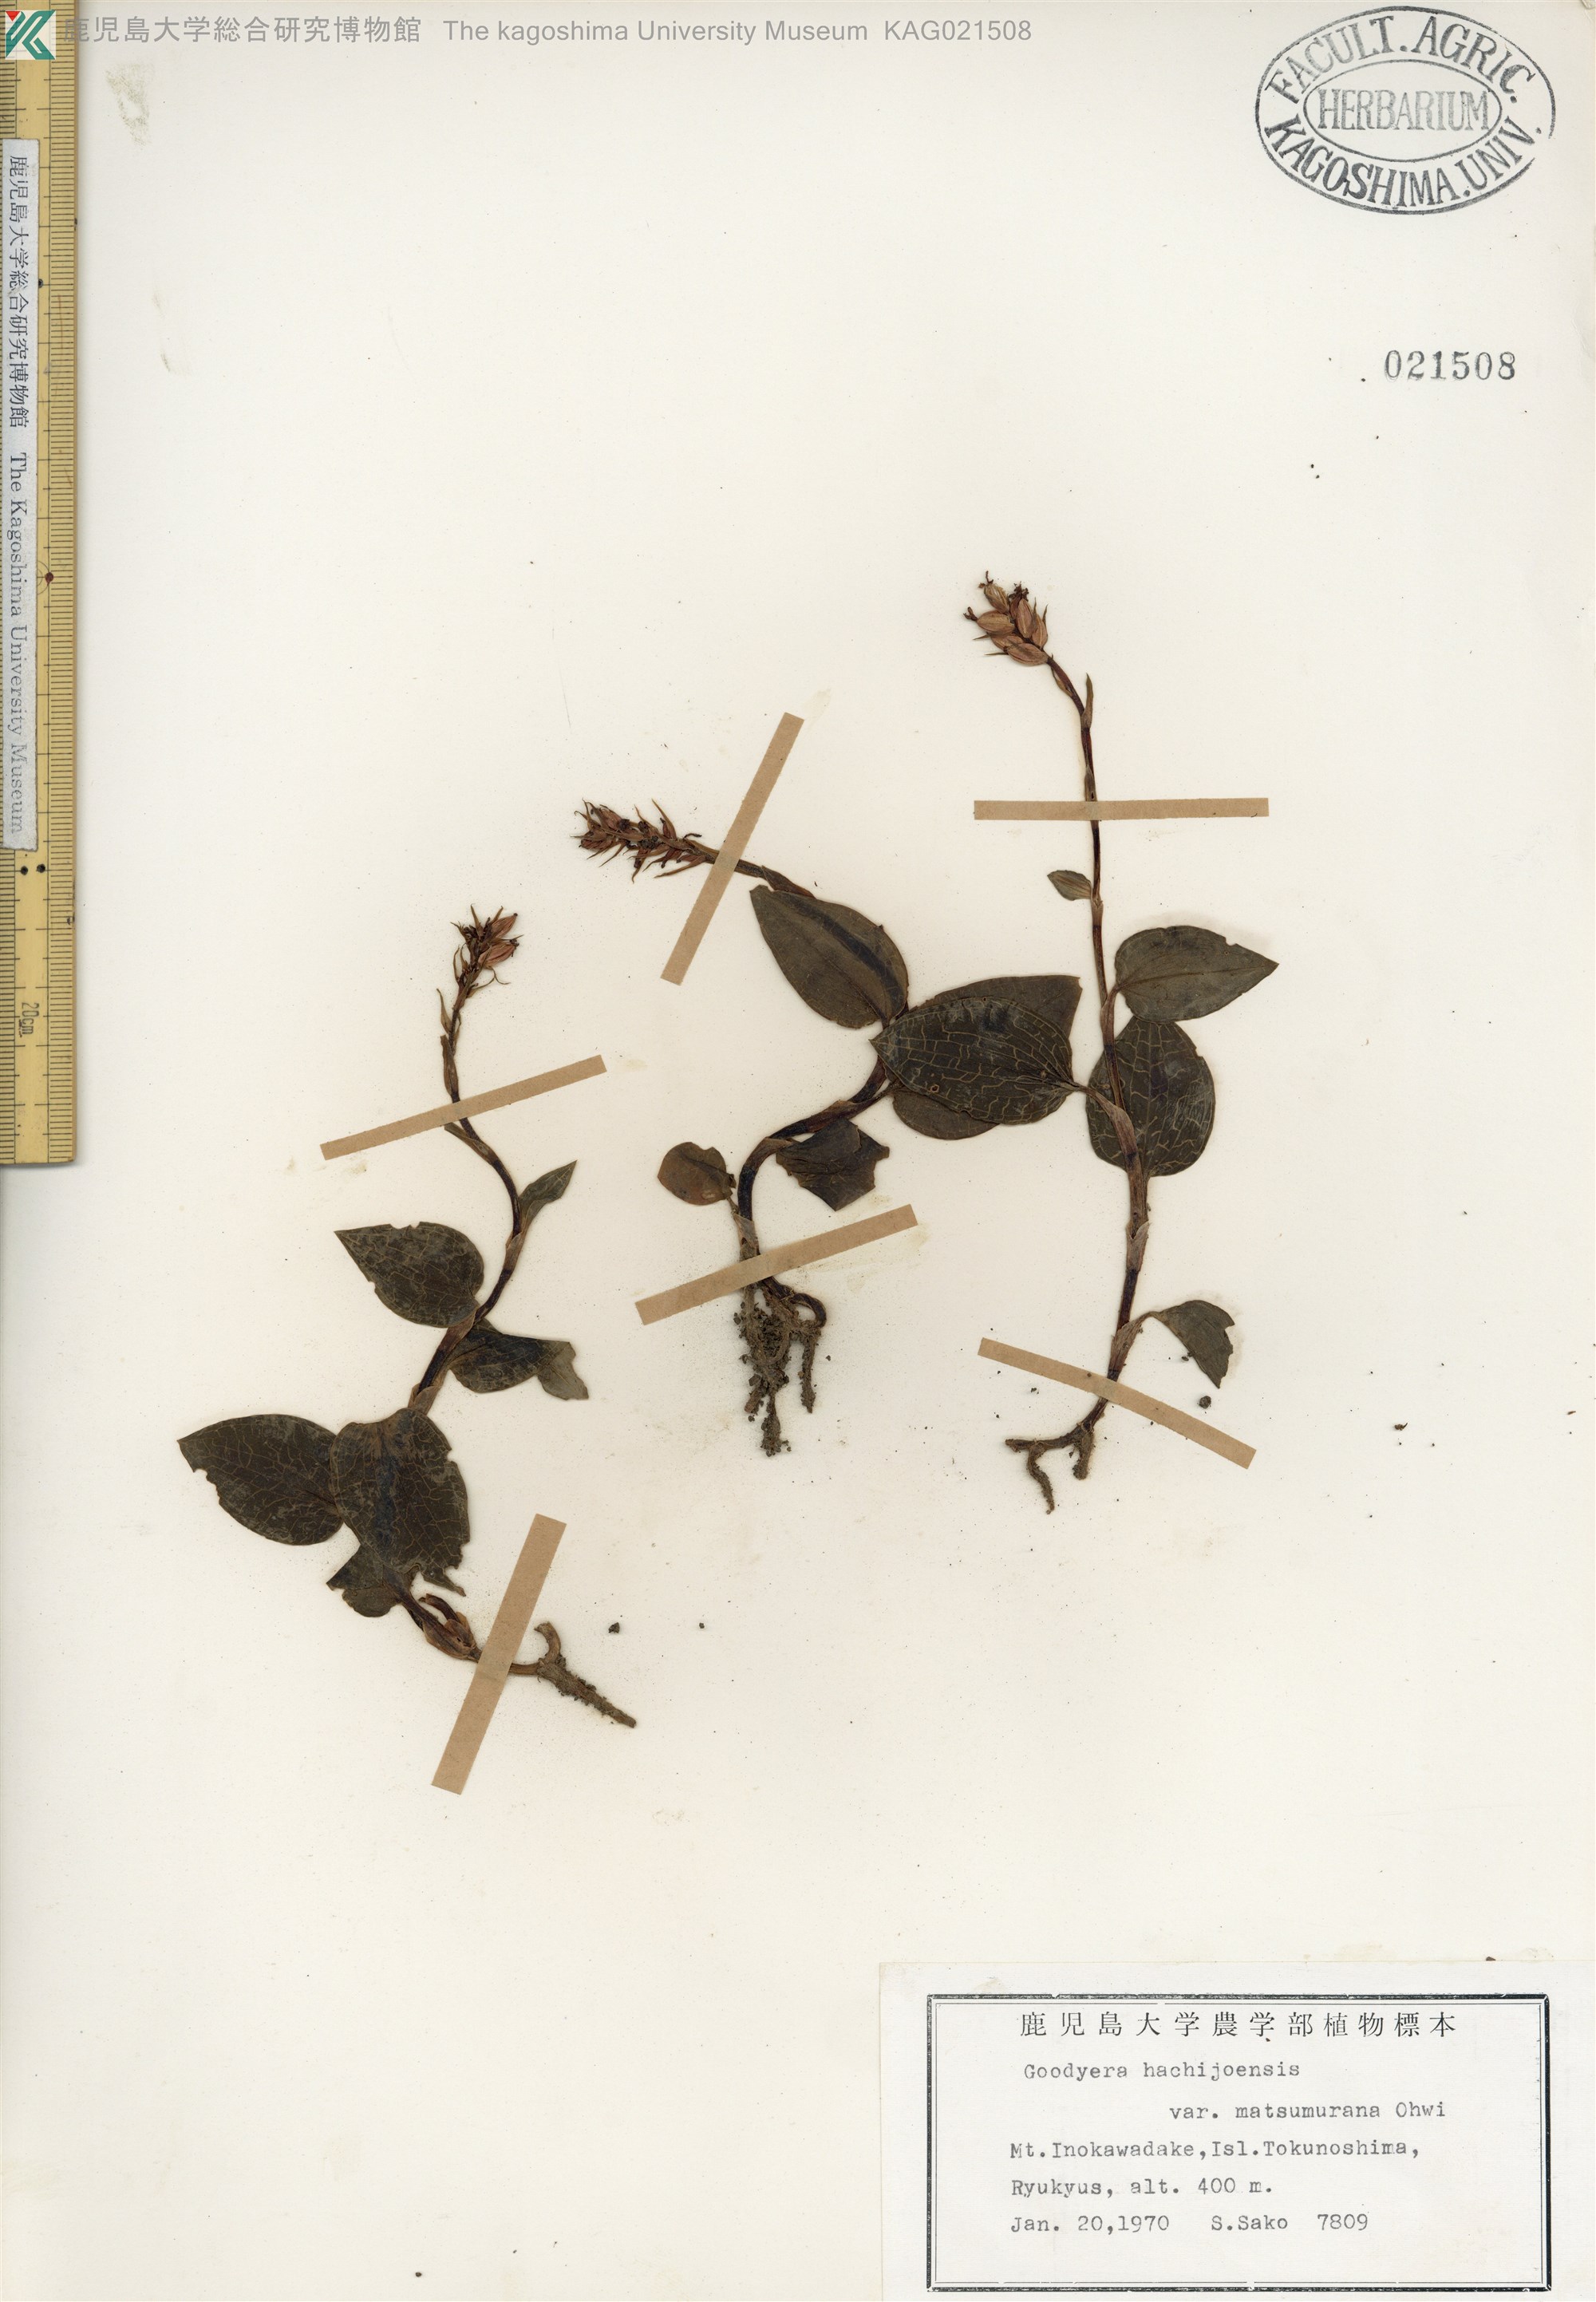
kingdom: Plantae
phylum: Tracheophyta
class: Liliopsida
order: Asparagales
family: Orchidaceae
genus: Goodyera
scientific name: Goodyera hachijoensis
